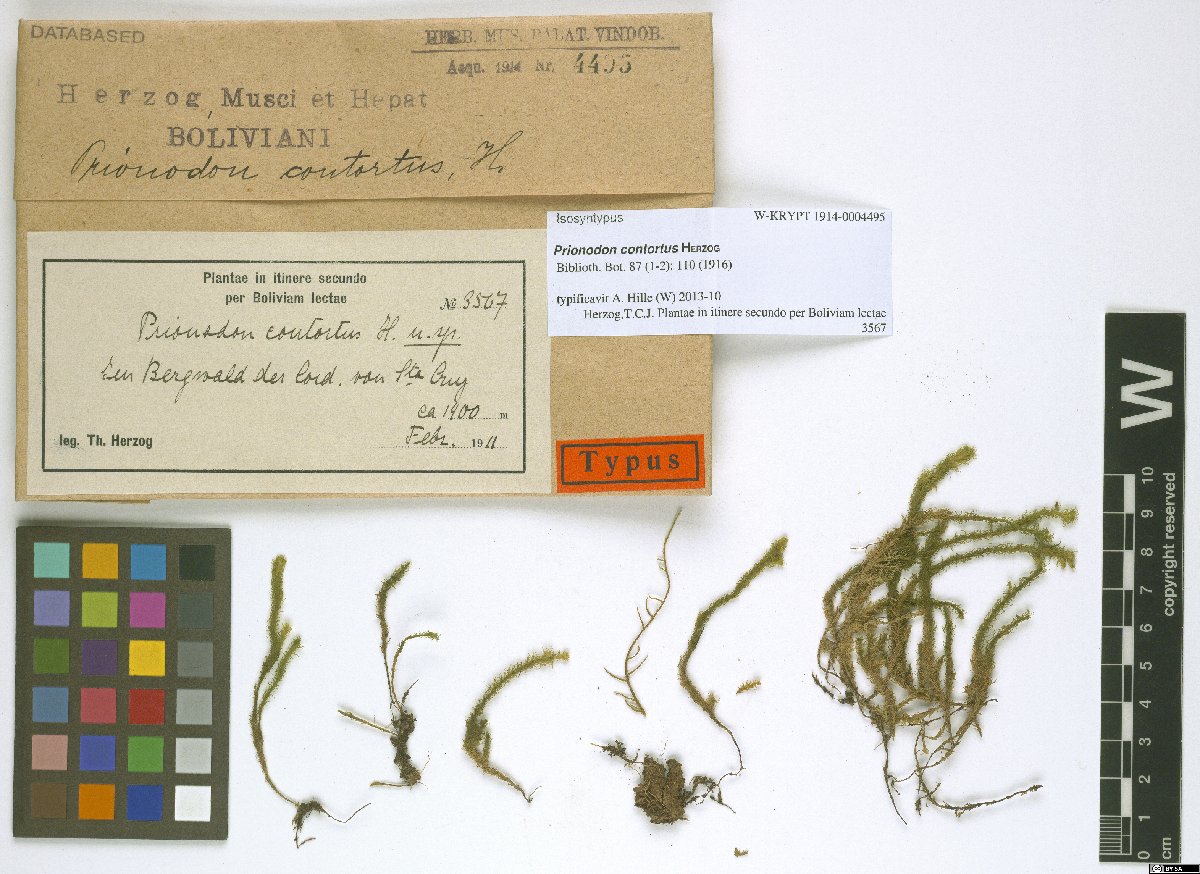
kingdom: Plantae
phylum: Bryophyta
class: Bryopsida
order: Hypnales
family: Prionodontaceae
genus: Prionodon
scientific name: Prionodon densus
